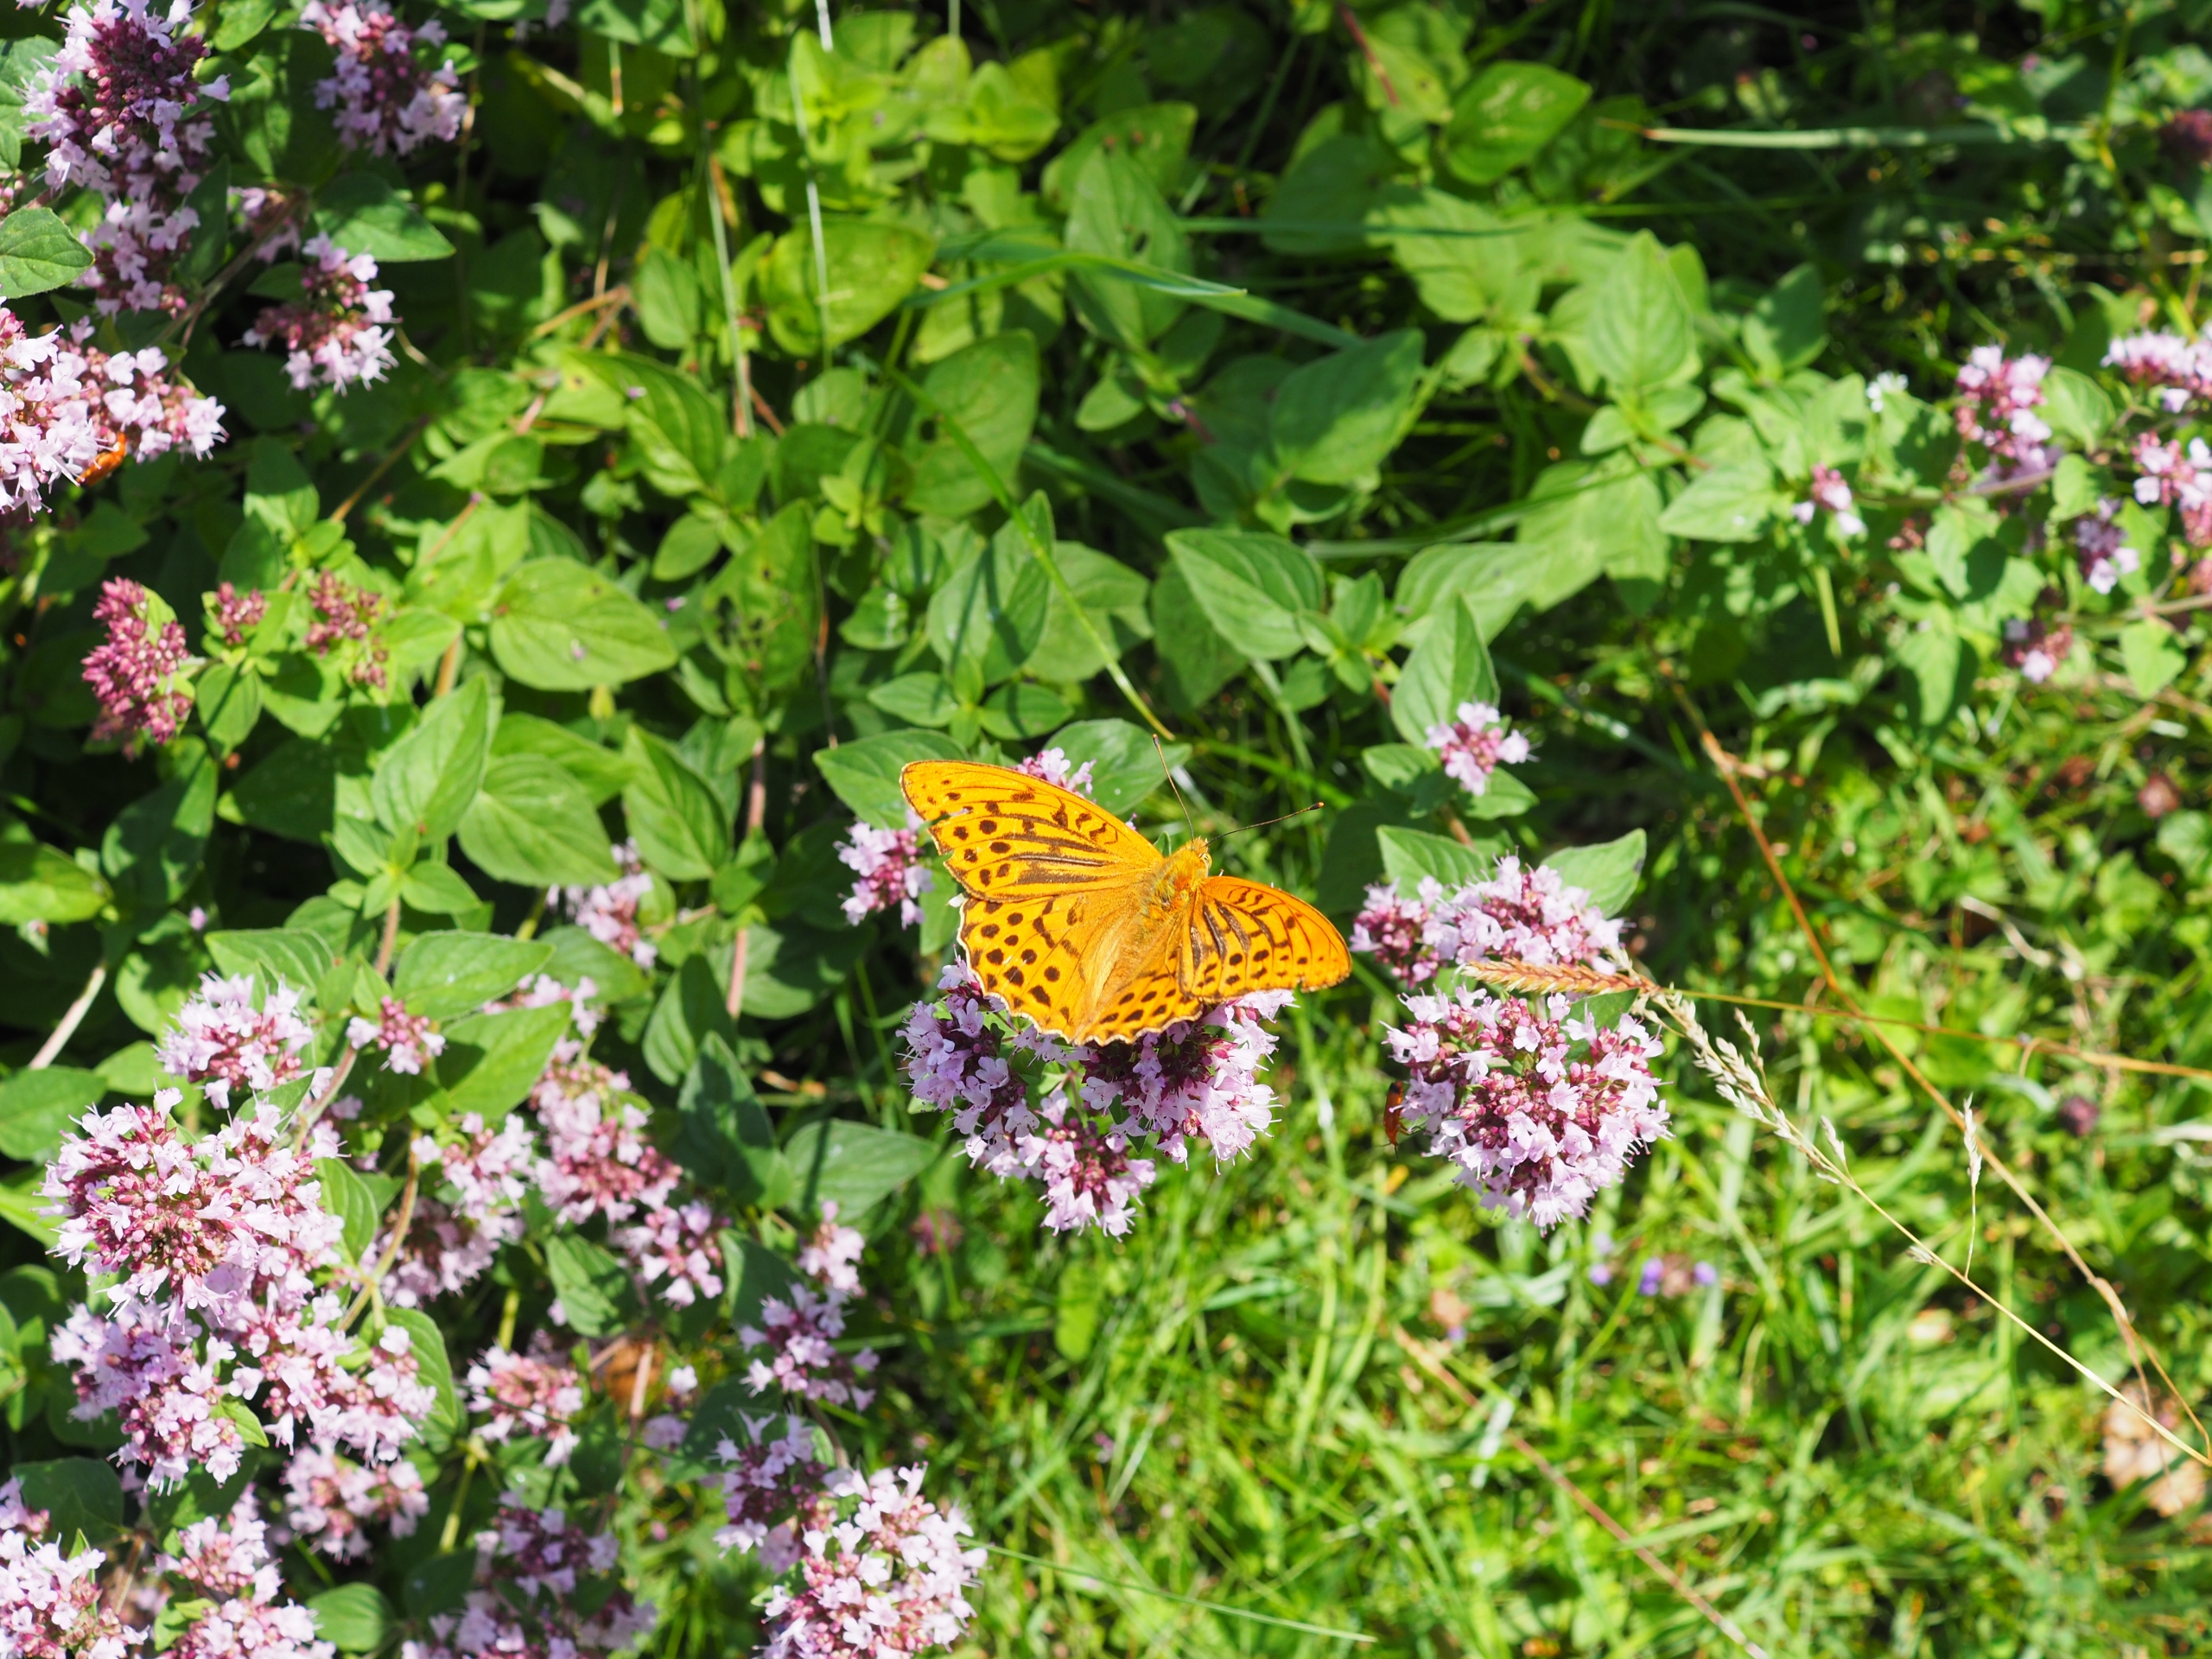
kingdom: Animalia
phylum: Arthropoda
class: Insecta
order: Lepidoptera
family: Nymphalidae
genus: Argynnis
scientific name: Argynnis paphia
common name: Kejserkåbe
